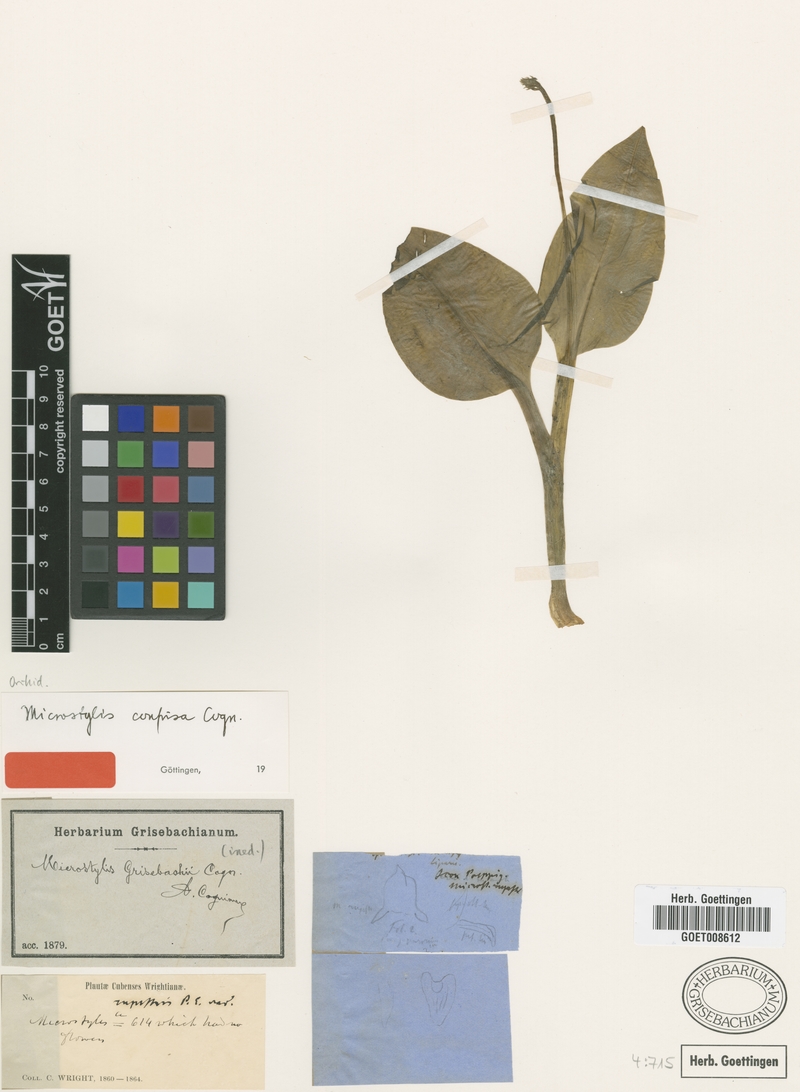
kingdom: Plantae
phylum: Tracheophyta
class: Liliopsida
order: Asparagales
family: Orchidaceae
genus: Malaxis
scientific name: Malaxis spicata
